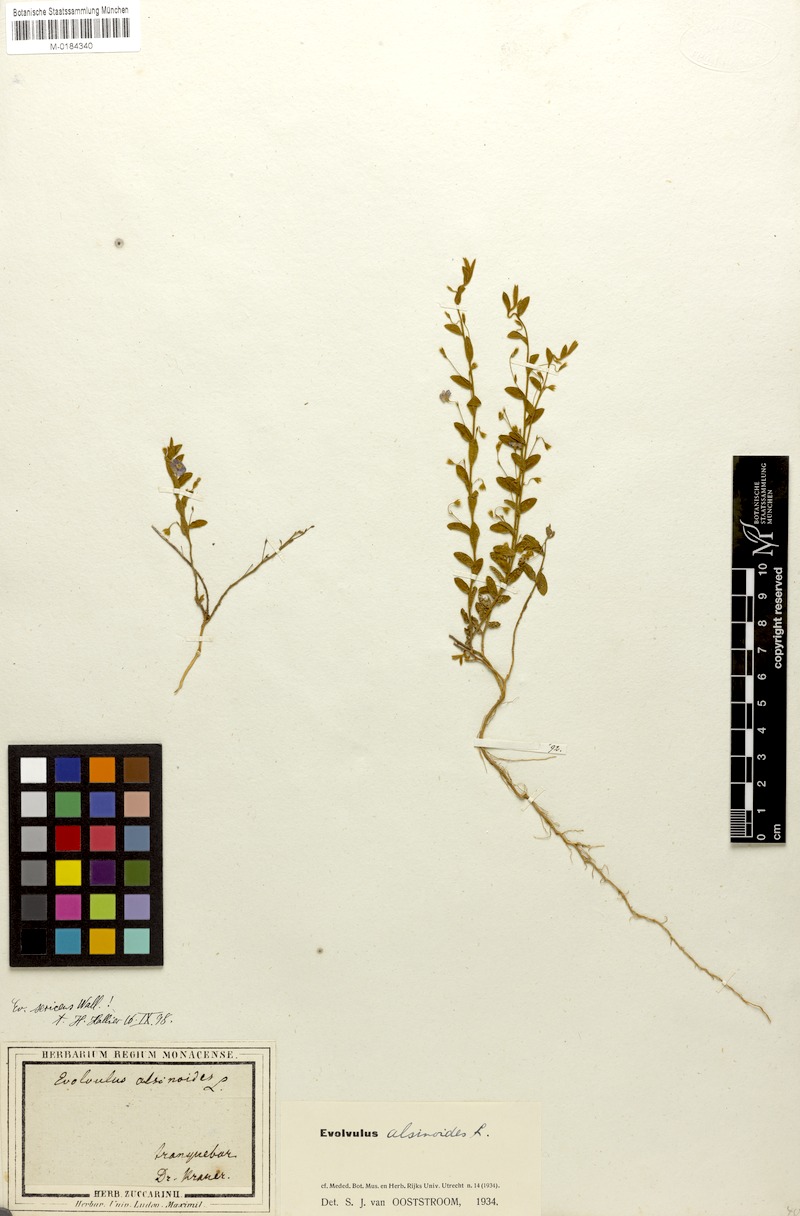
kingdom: Plantae
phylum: Tracheophyta
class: Magnoliopsida
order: Solanales
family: Convolvulaceae
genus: Evolvulus
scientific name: Evolvulus alsinoides
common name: Slender dwarf morning-glory
